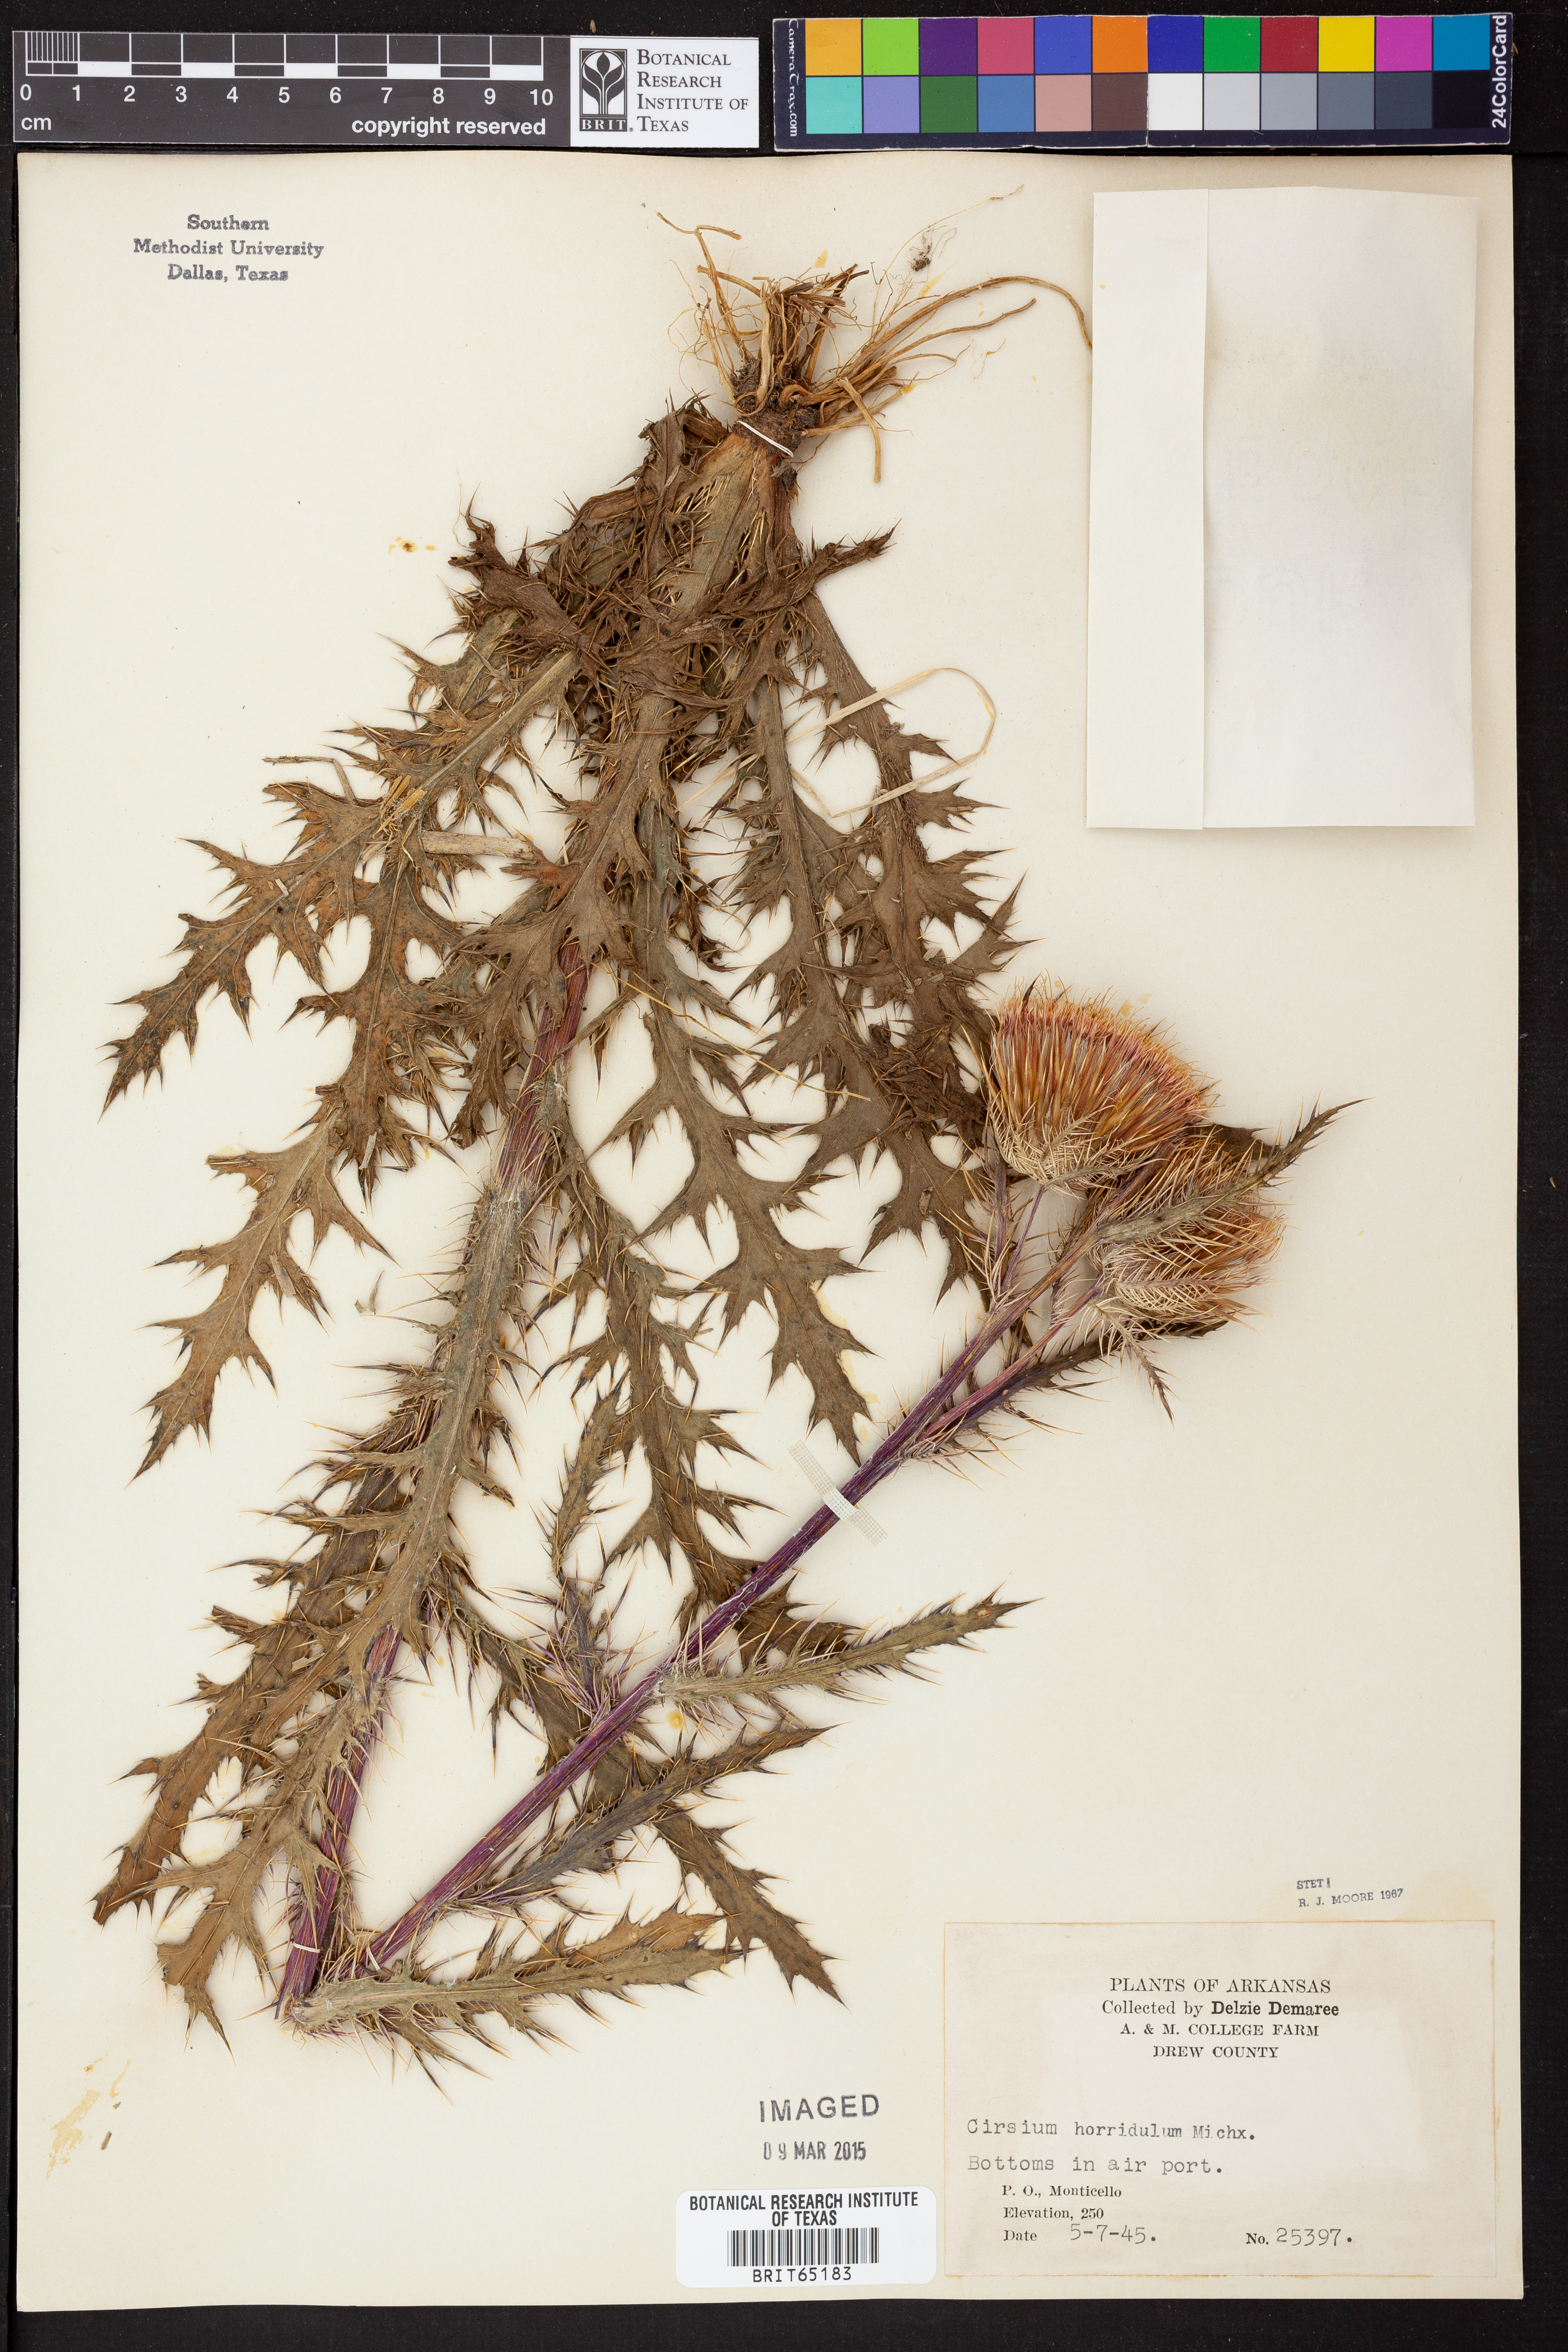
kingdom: Plantae
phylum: Tracheophyta
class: Magnoliopsida
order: Asterales
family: Asteraceae
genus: Cirsium
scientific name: Cirsium horridulum
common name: Bristly thistle
